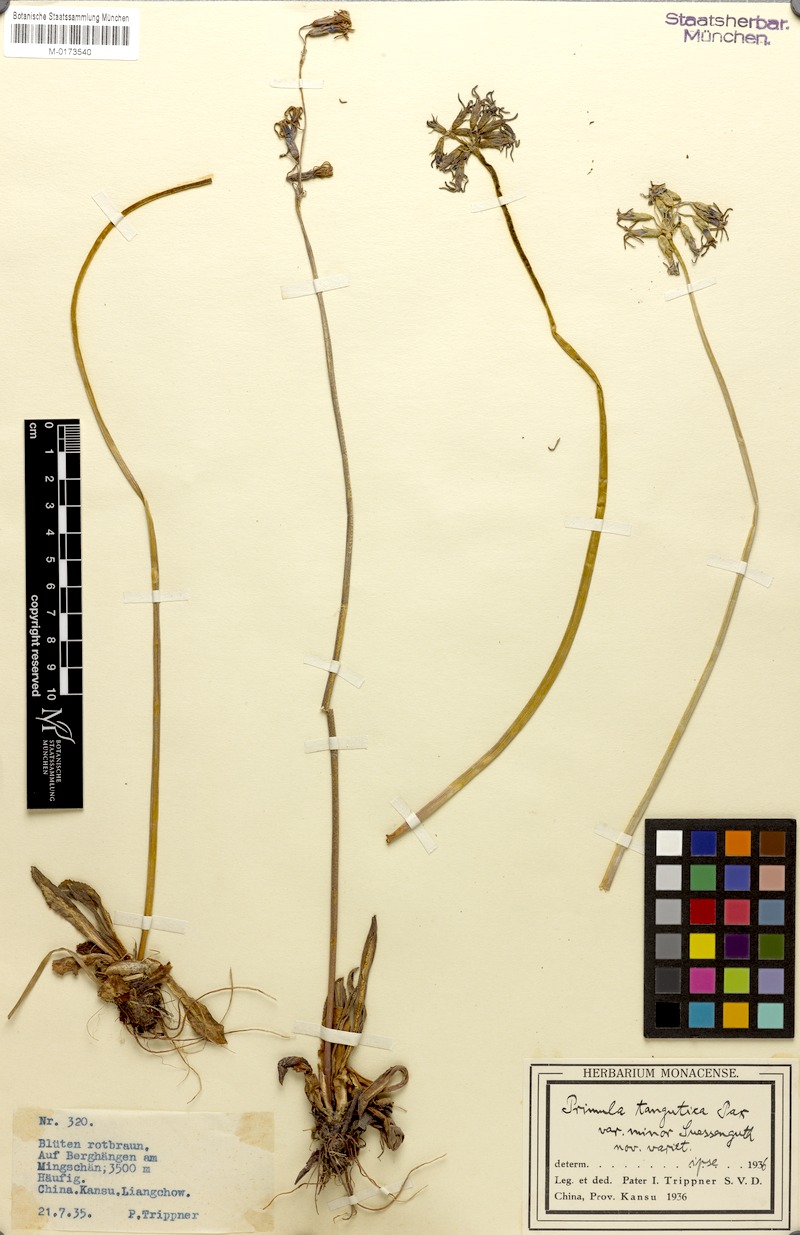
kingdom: Plantae
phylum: Tracheophyta
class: Magnoliopsida
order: Ericales
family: Primulaceae
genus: Primula
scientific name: Primula tangutica
